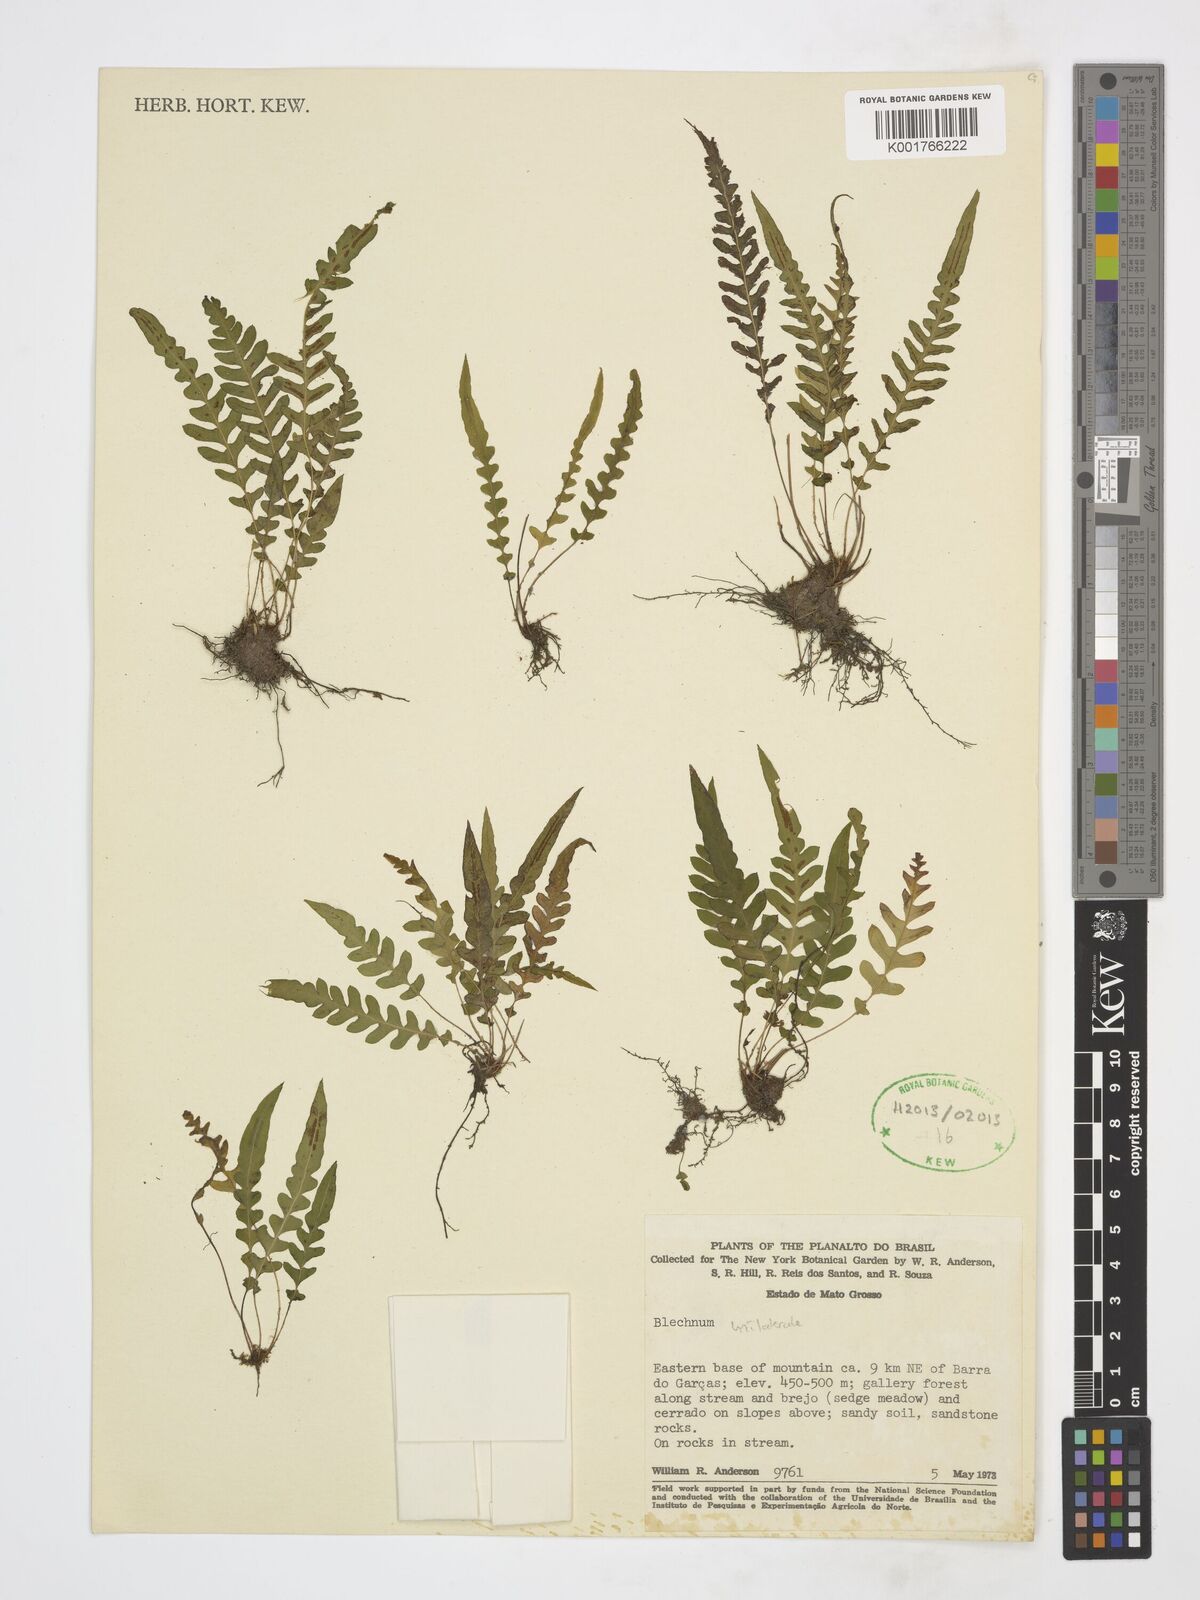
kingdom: Plantae
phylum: Tracheophyta
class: Polypodiopsida
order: Polypodiales
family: Blechnaceae
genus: Blechnum
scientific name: Blechnum
